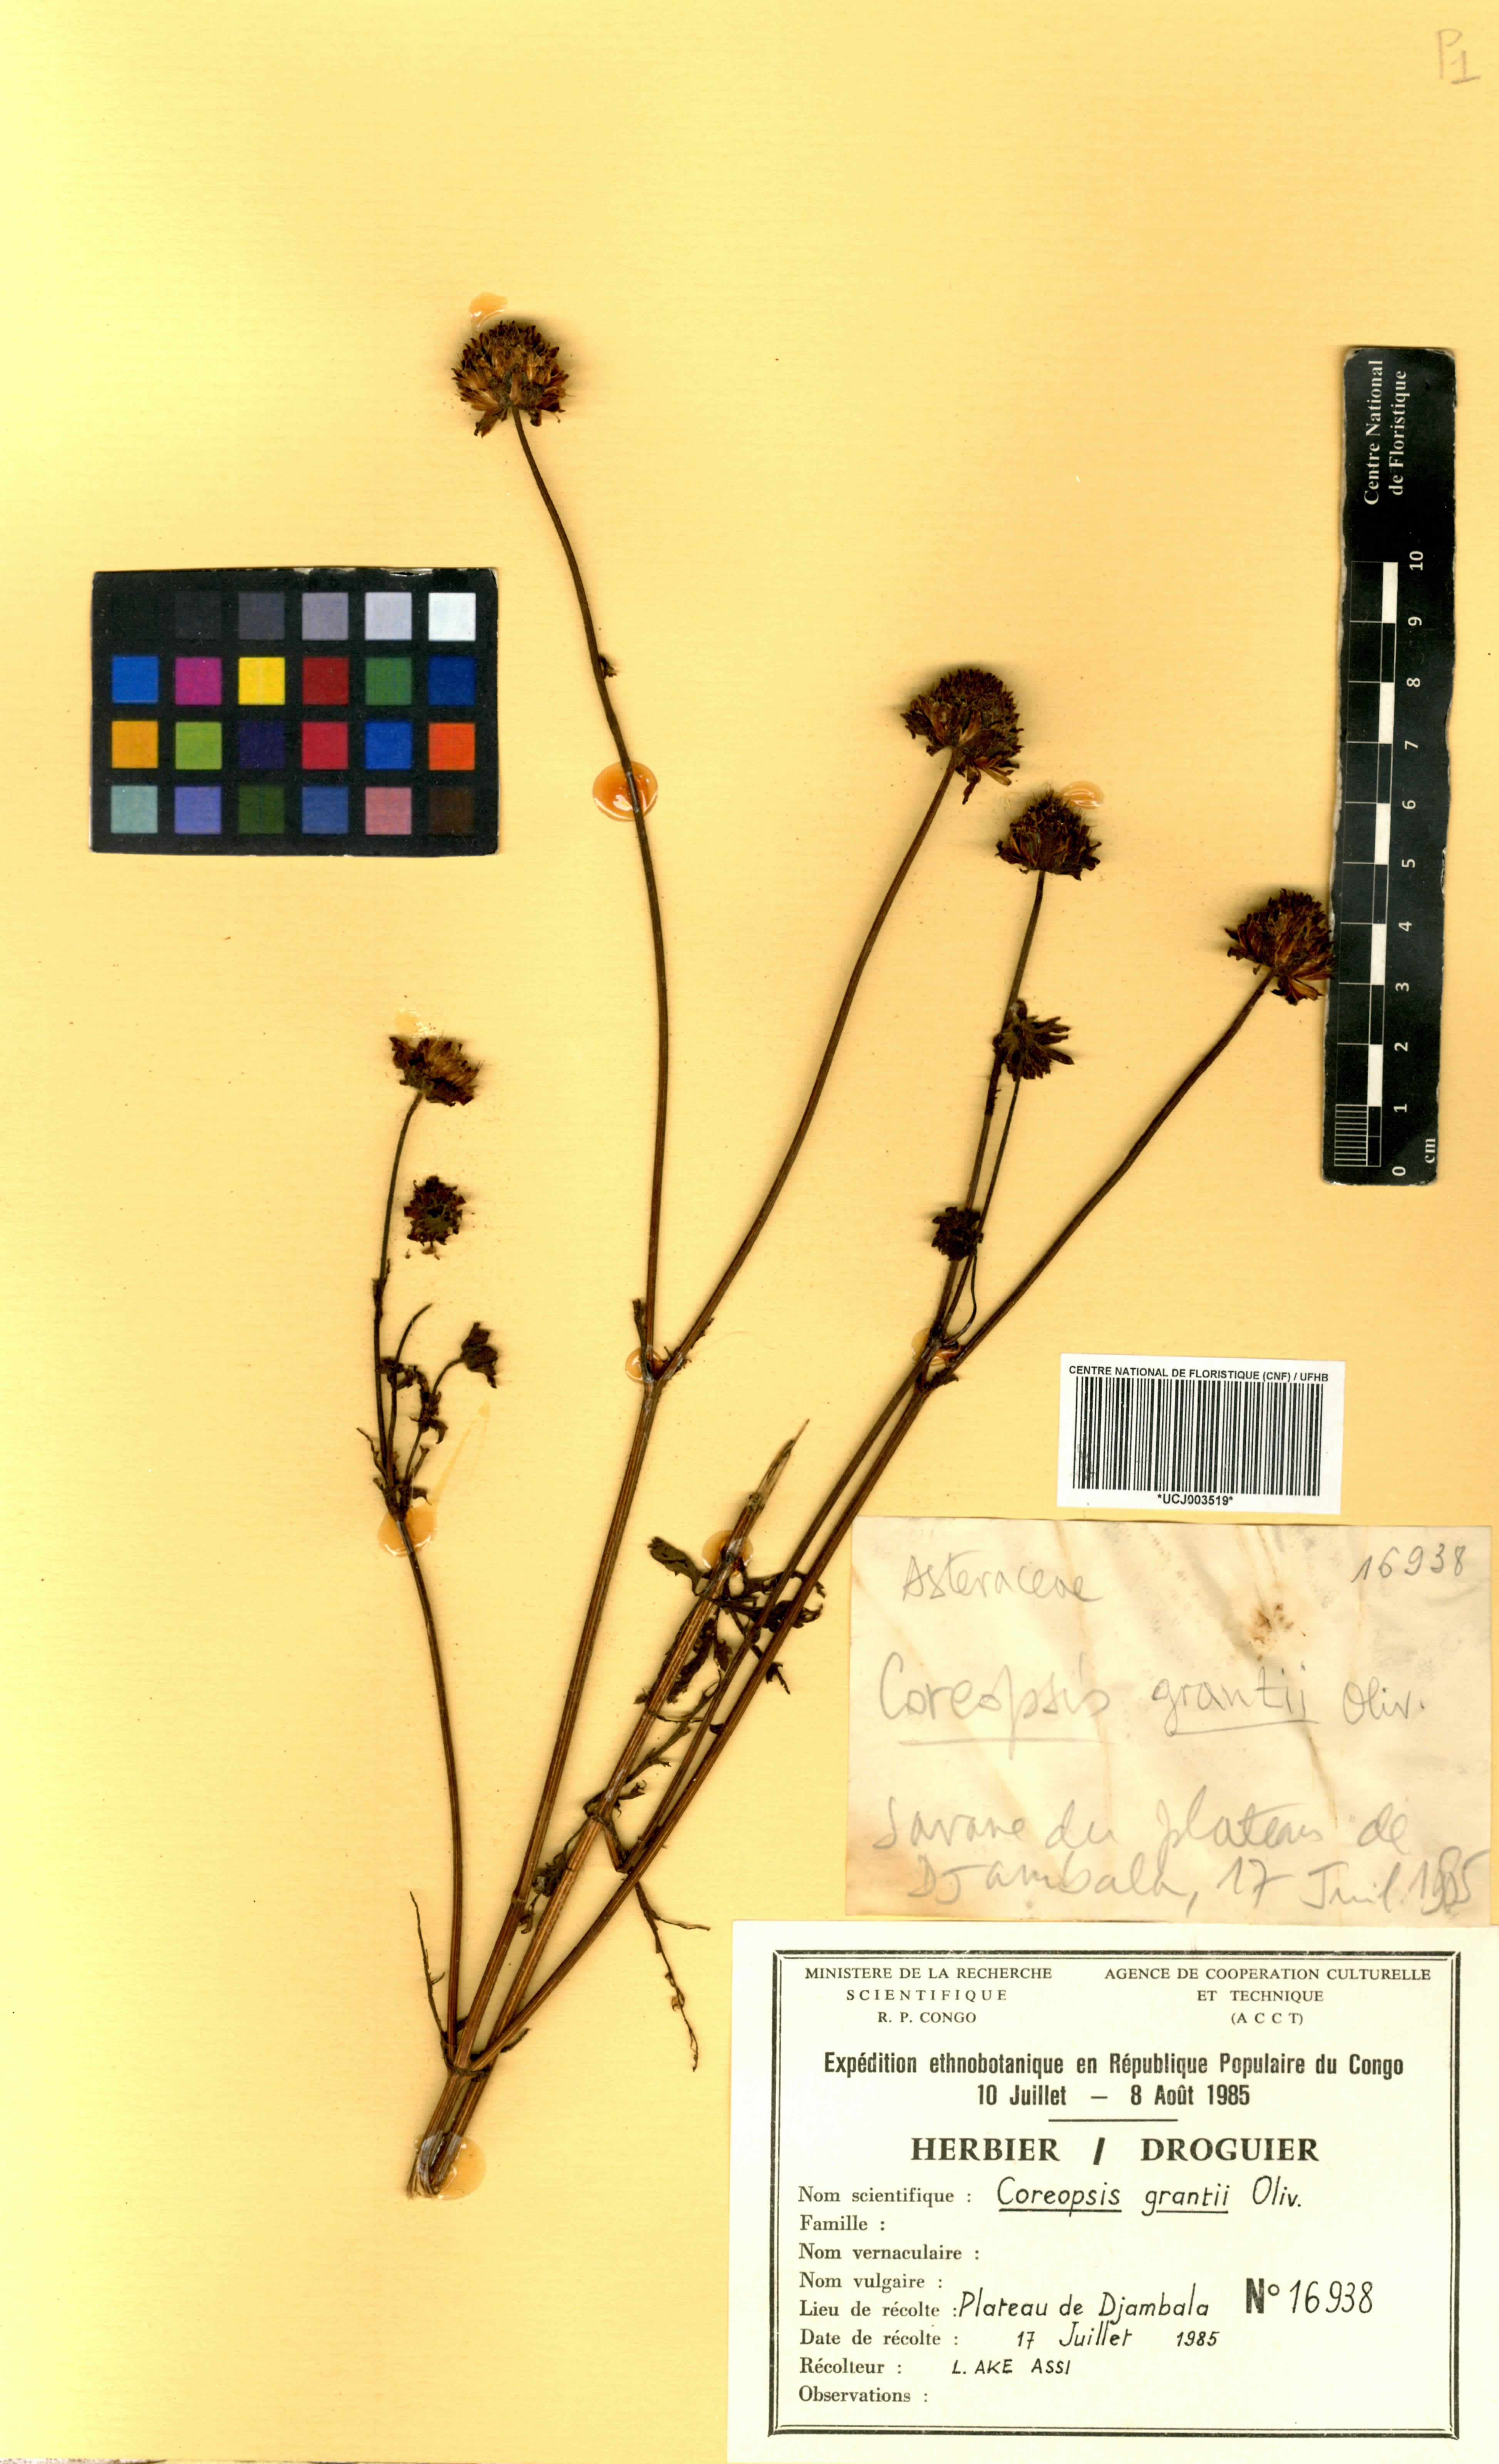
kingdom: Plantae
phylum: Tracheophyta
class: Magnoliopsida
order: Asterales
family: Asteraceae
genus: Bidens
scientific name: Bidens grantii
